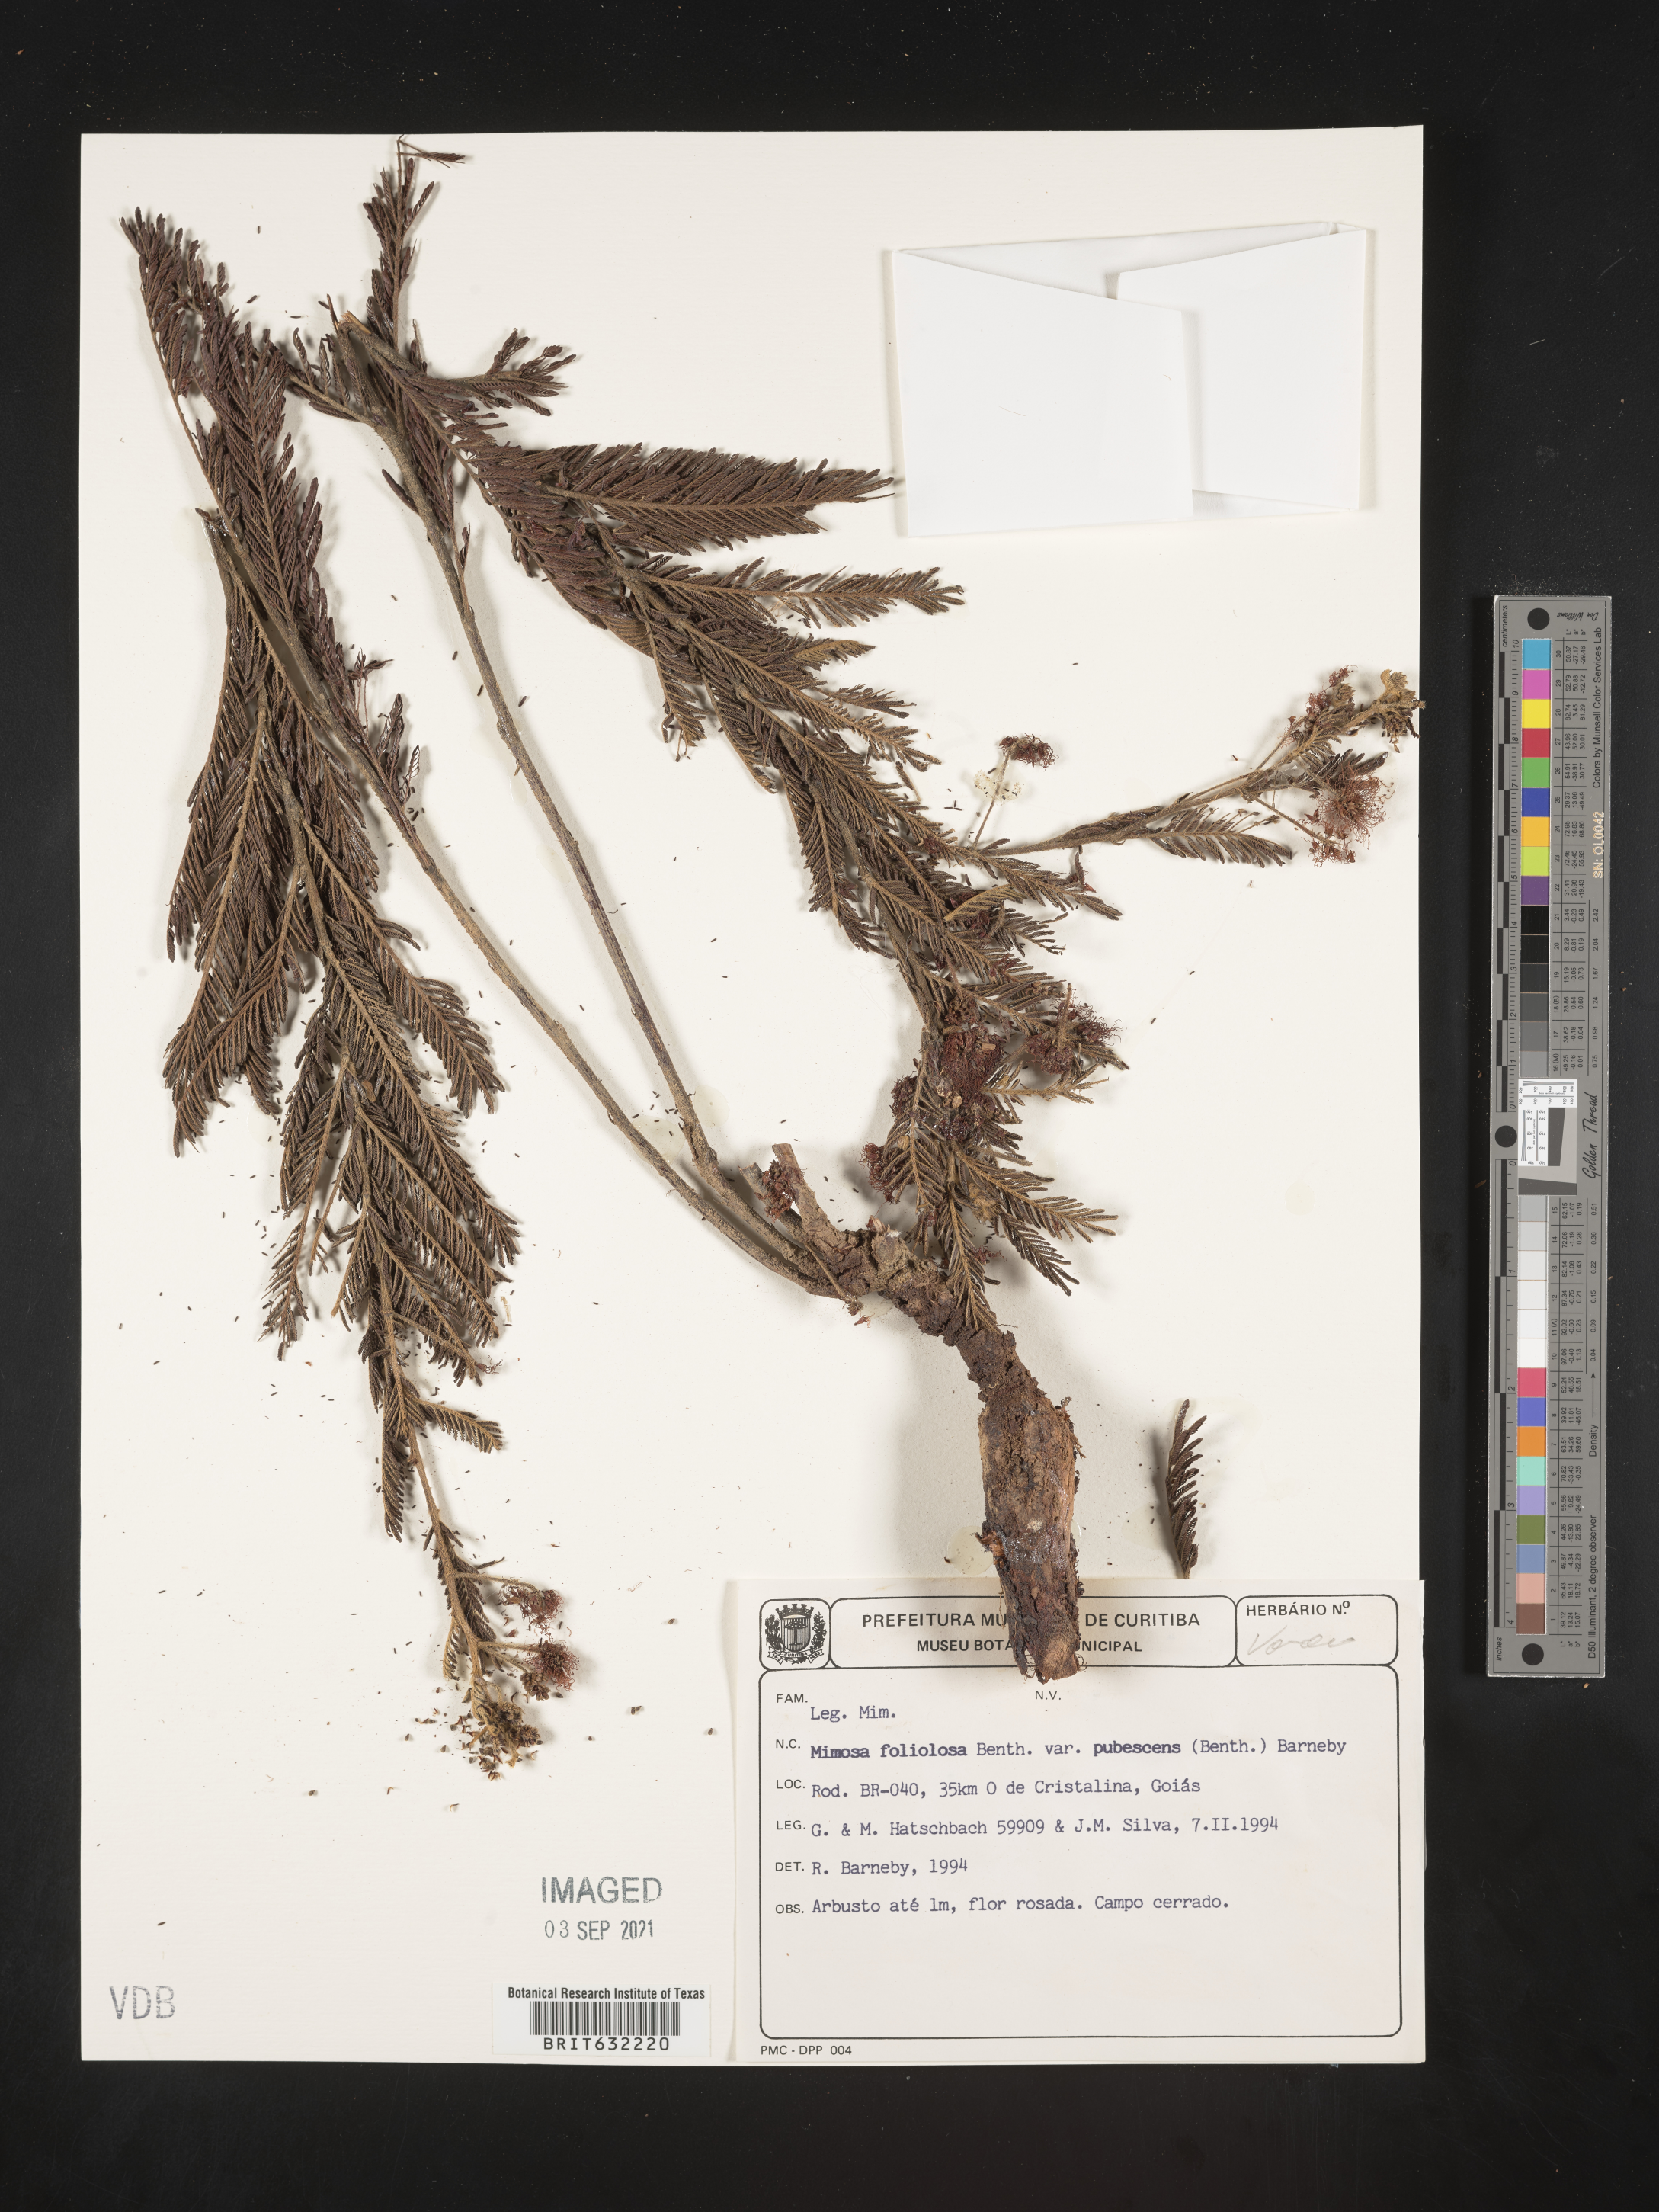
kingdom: Plantae
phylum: Tracheophyta
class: Magnoliopsida
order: Fabales
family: Fabaceae
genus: Mimosa
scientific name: Mimosa
